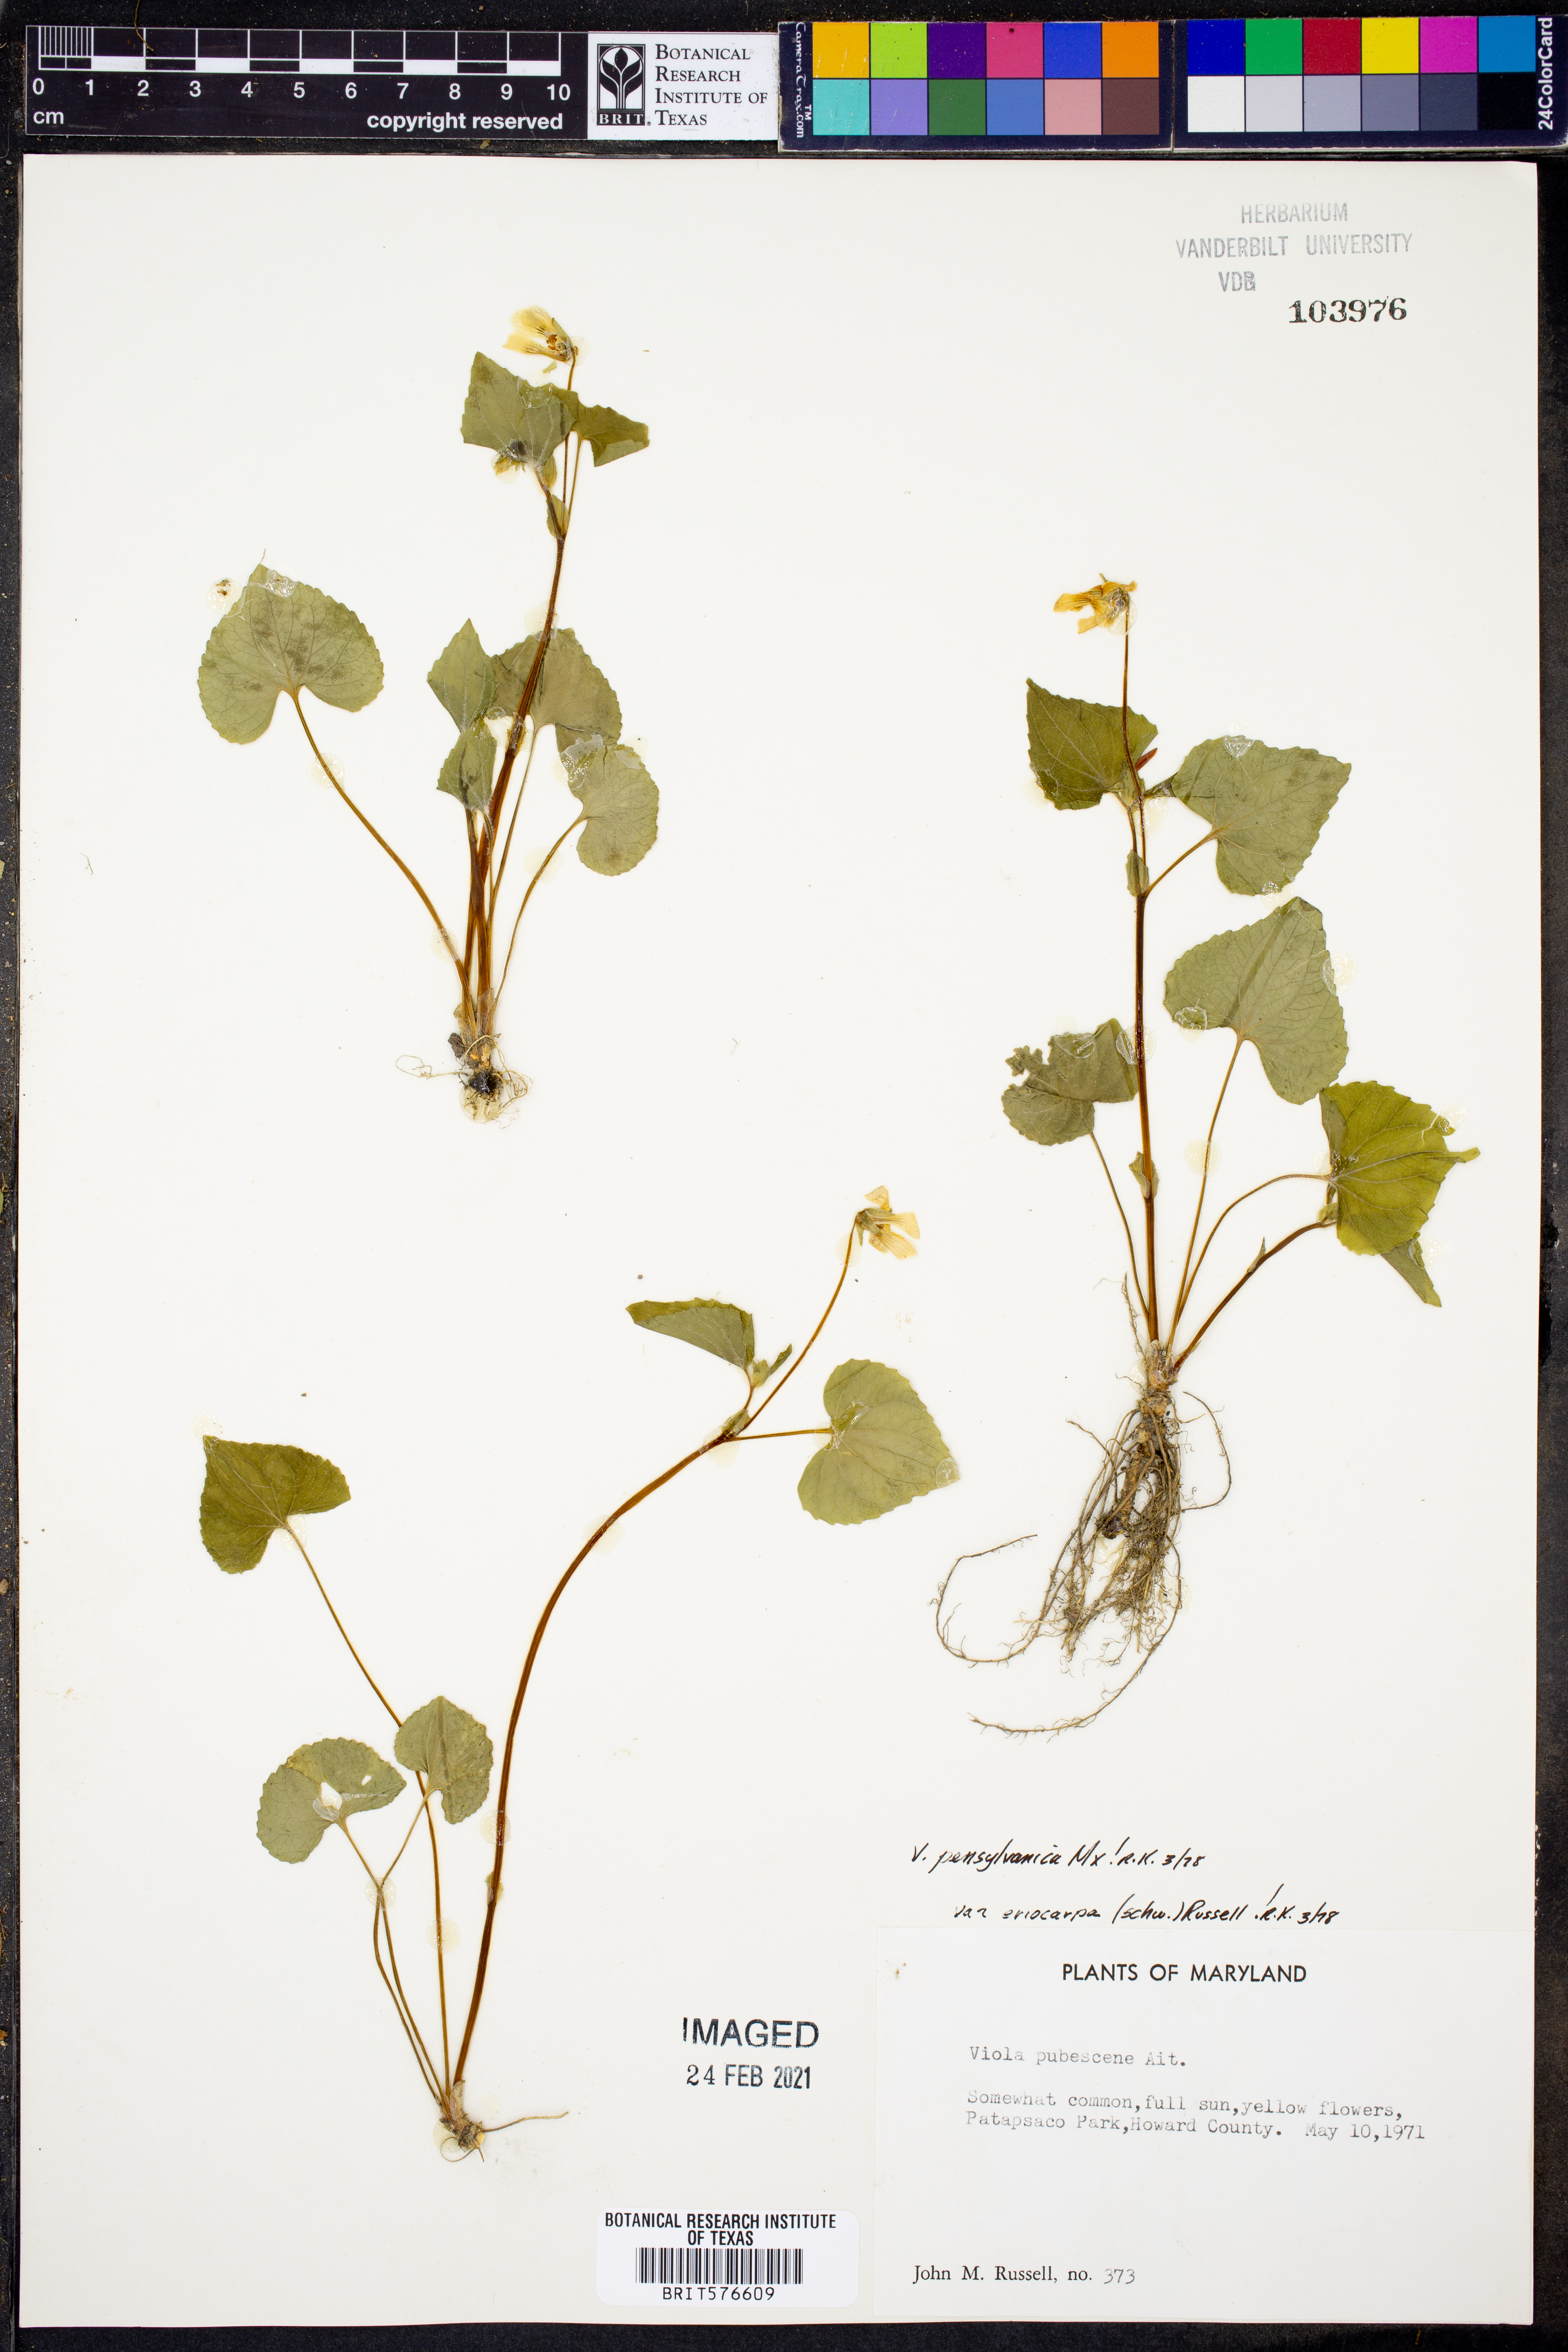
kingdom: Plantae
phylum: Tracheophyta
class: Magnoliopsida
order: Malpighiales
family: Violaceae
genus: Viola
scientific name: Viola pubescens
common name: Yellow forest violet
